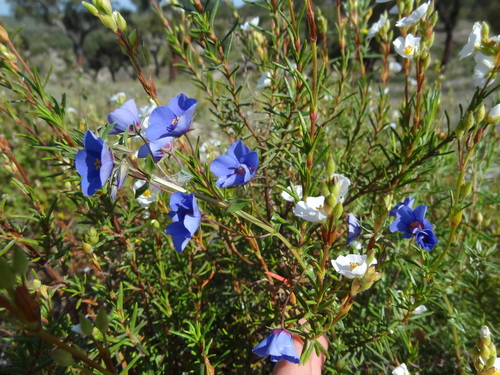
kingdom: Plantae
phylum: Tracheophyta
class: Magnoliopsida
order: Ericales
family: Primulaceae
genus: Lysimachia
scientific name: Lysimachia monelli
